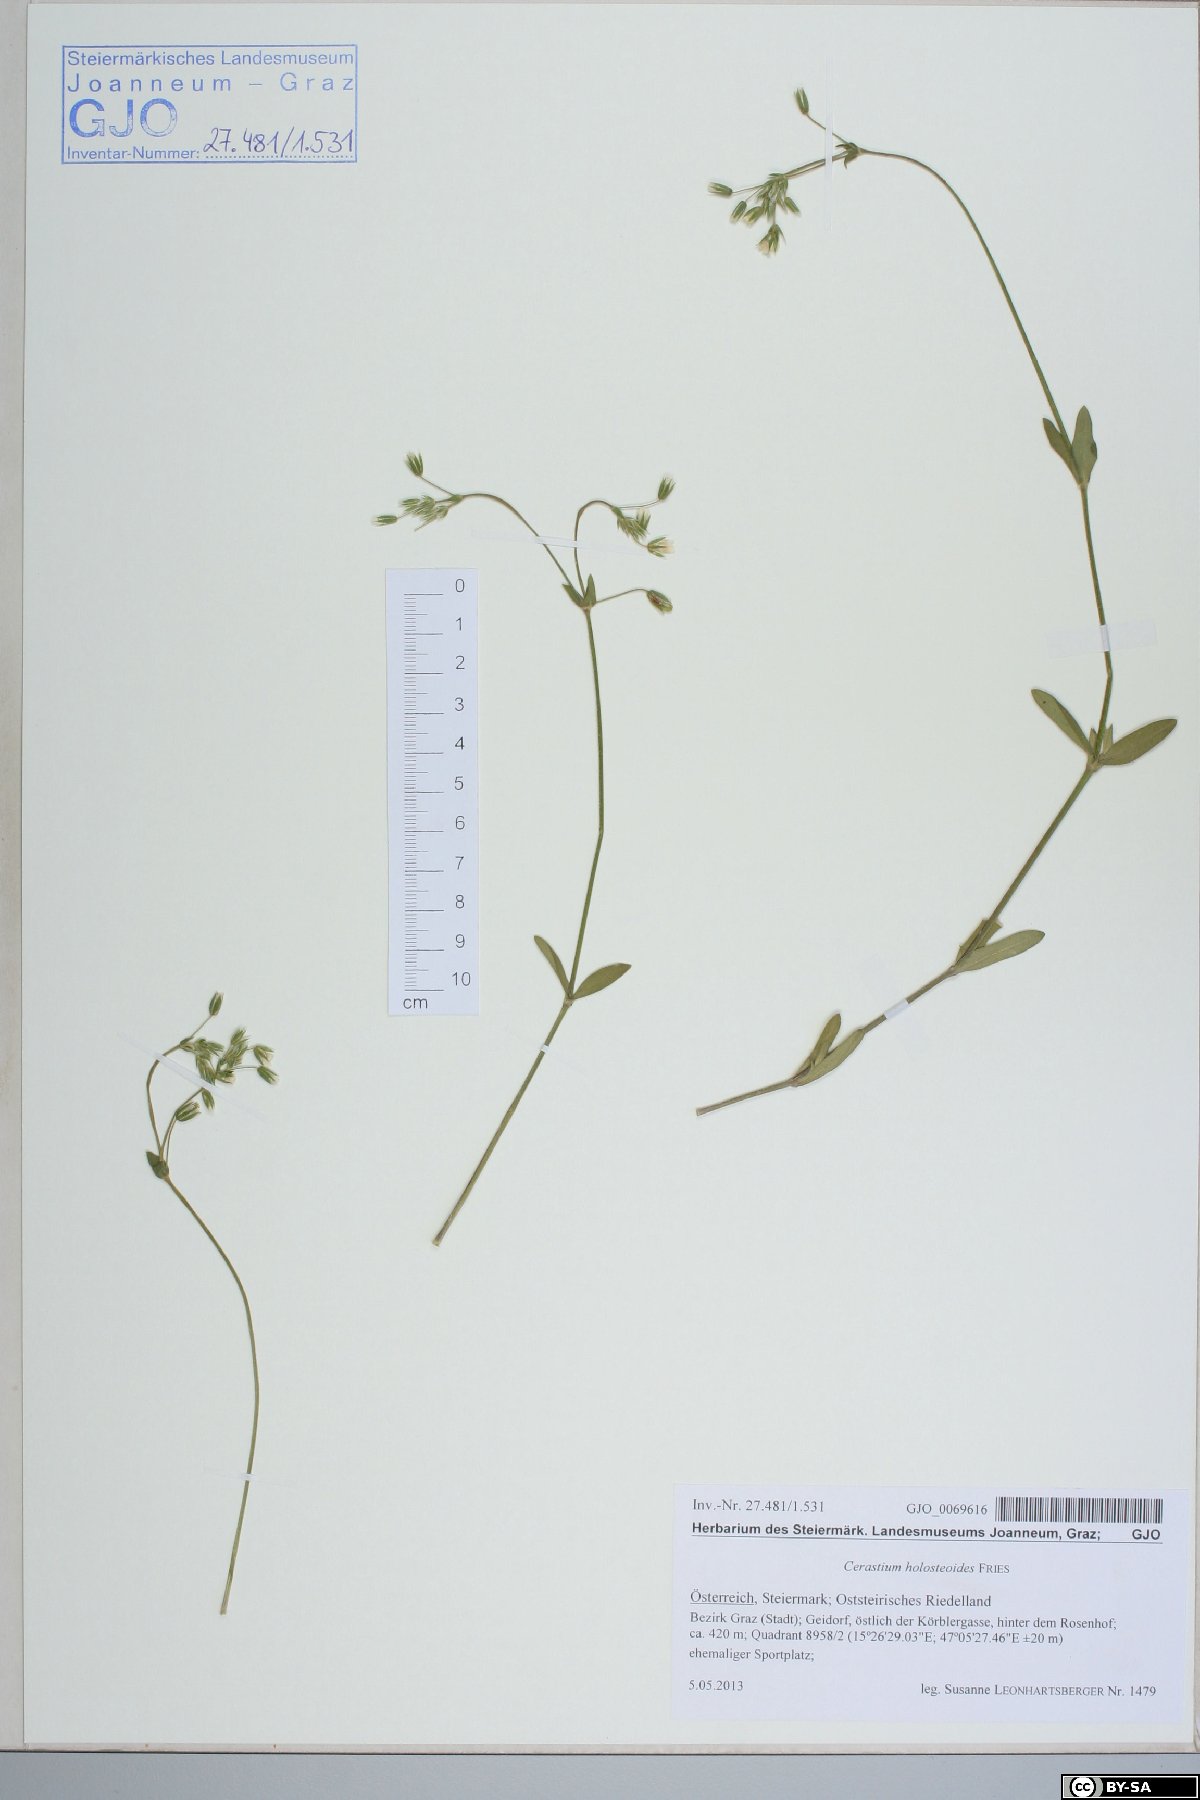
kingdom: Plantae
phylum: Tracheophyta
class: Magnoliopsida
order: Caryophyllales
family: Caryophyllaceae
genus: Cerastium
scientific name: Cerastium holosteoides
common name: Big chickweed
